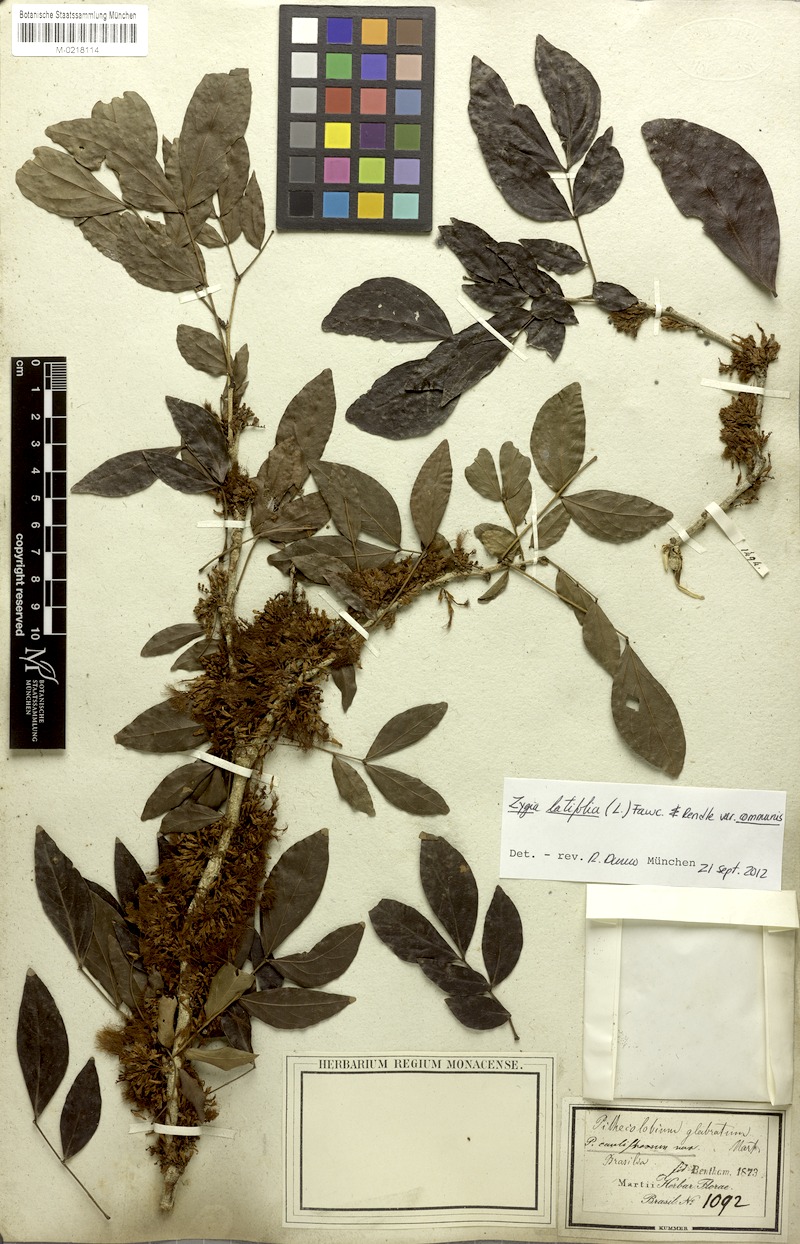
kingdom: Plantae
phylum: Tracheophyta
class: Magnoliopsida
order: Fabales
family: Fabaceae
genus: Zygia
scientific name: Zygia cauliflora
